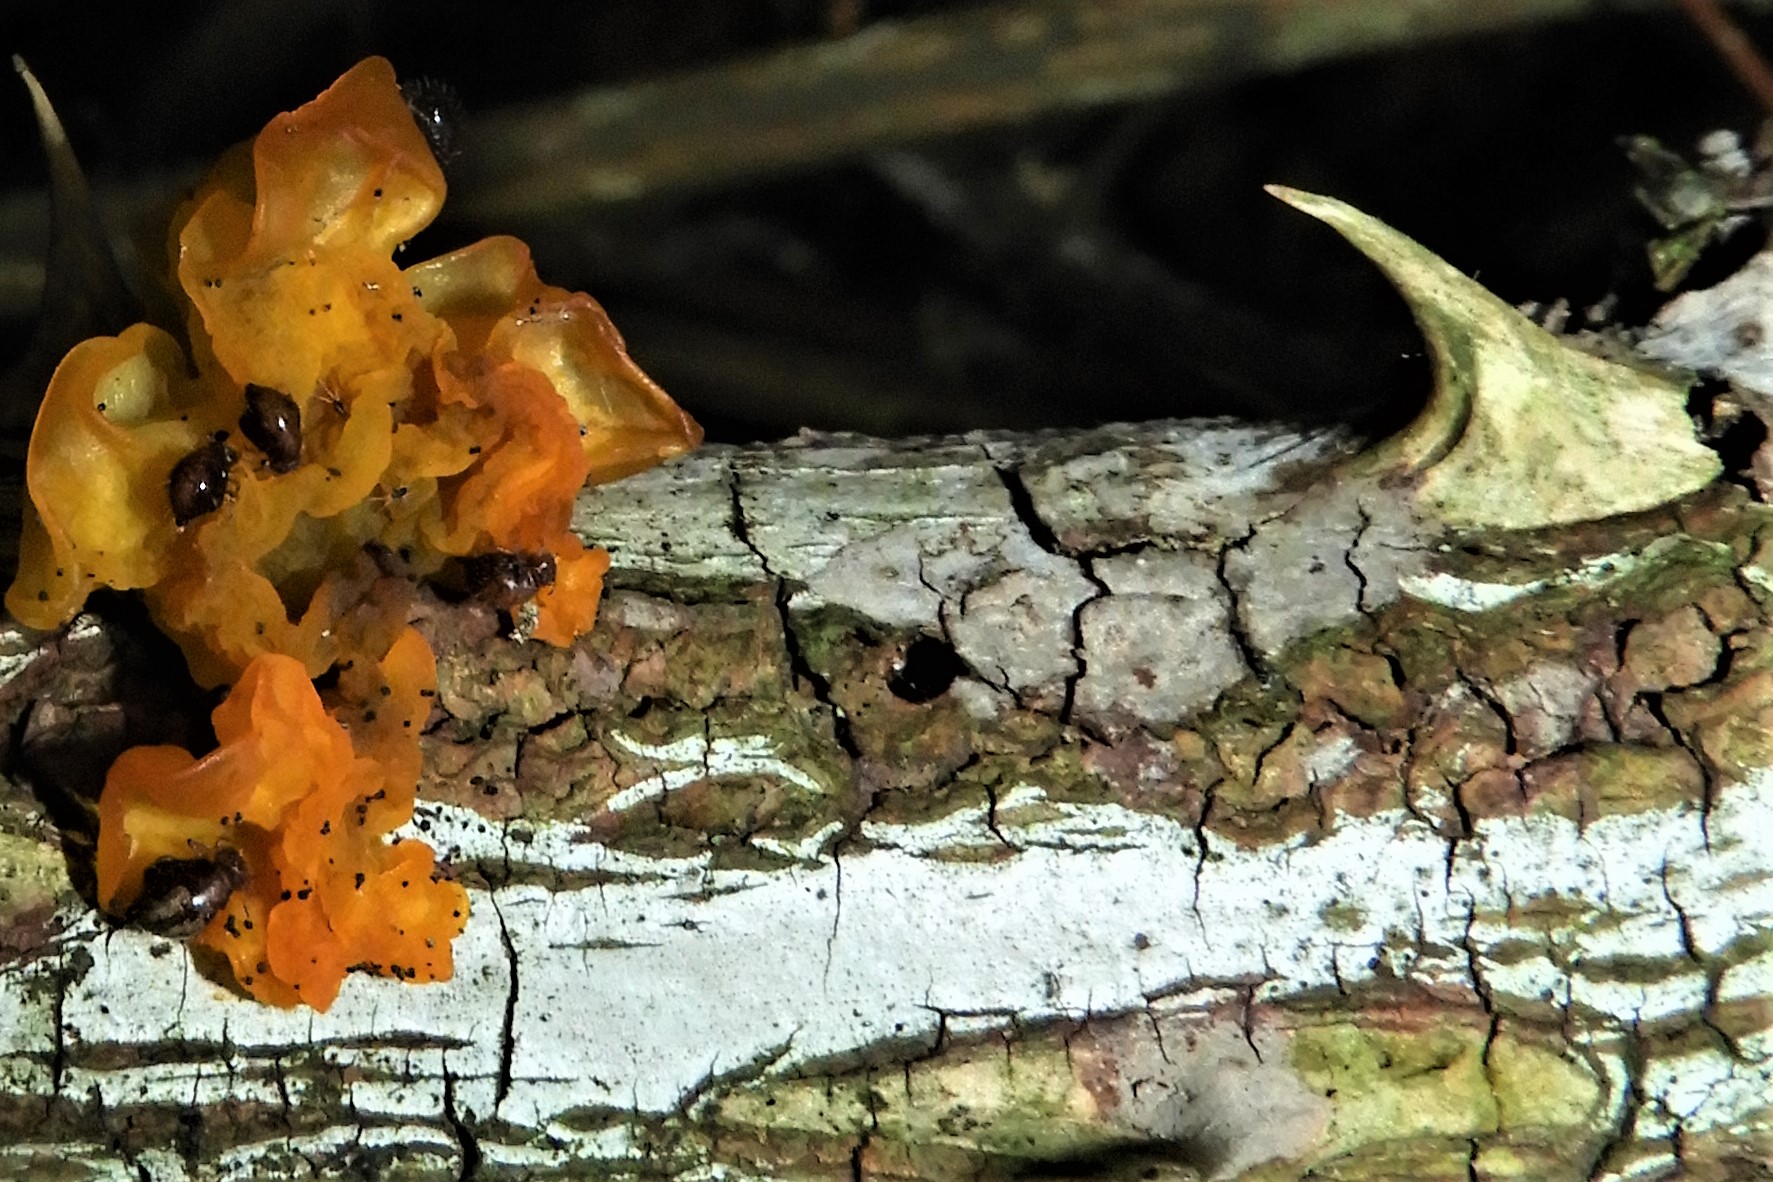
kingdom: Fungi
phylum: Basidiomycota
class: Tremellomycetes
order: Tremellales
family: Tremellaceae
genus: Tremella
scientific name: Tremella mesenterica
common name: gul bævresvamp
